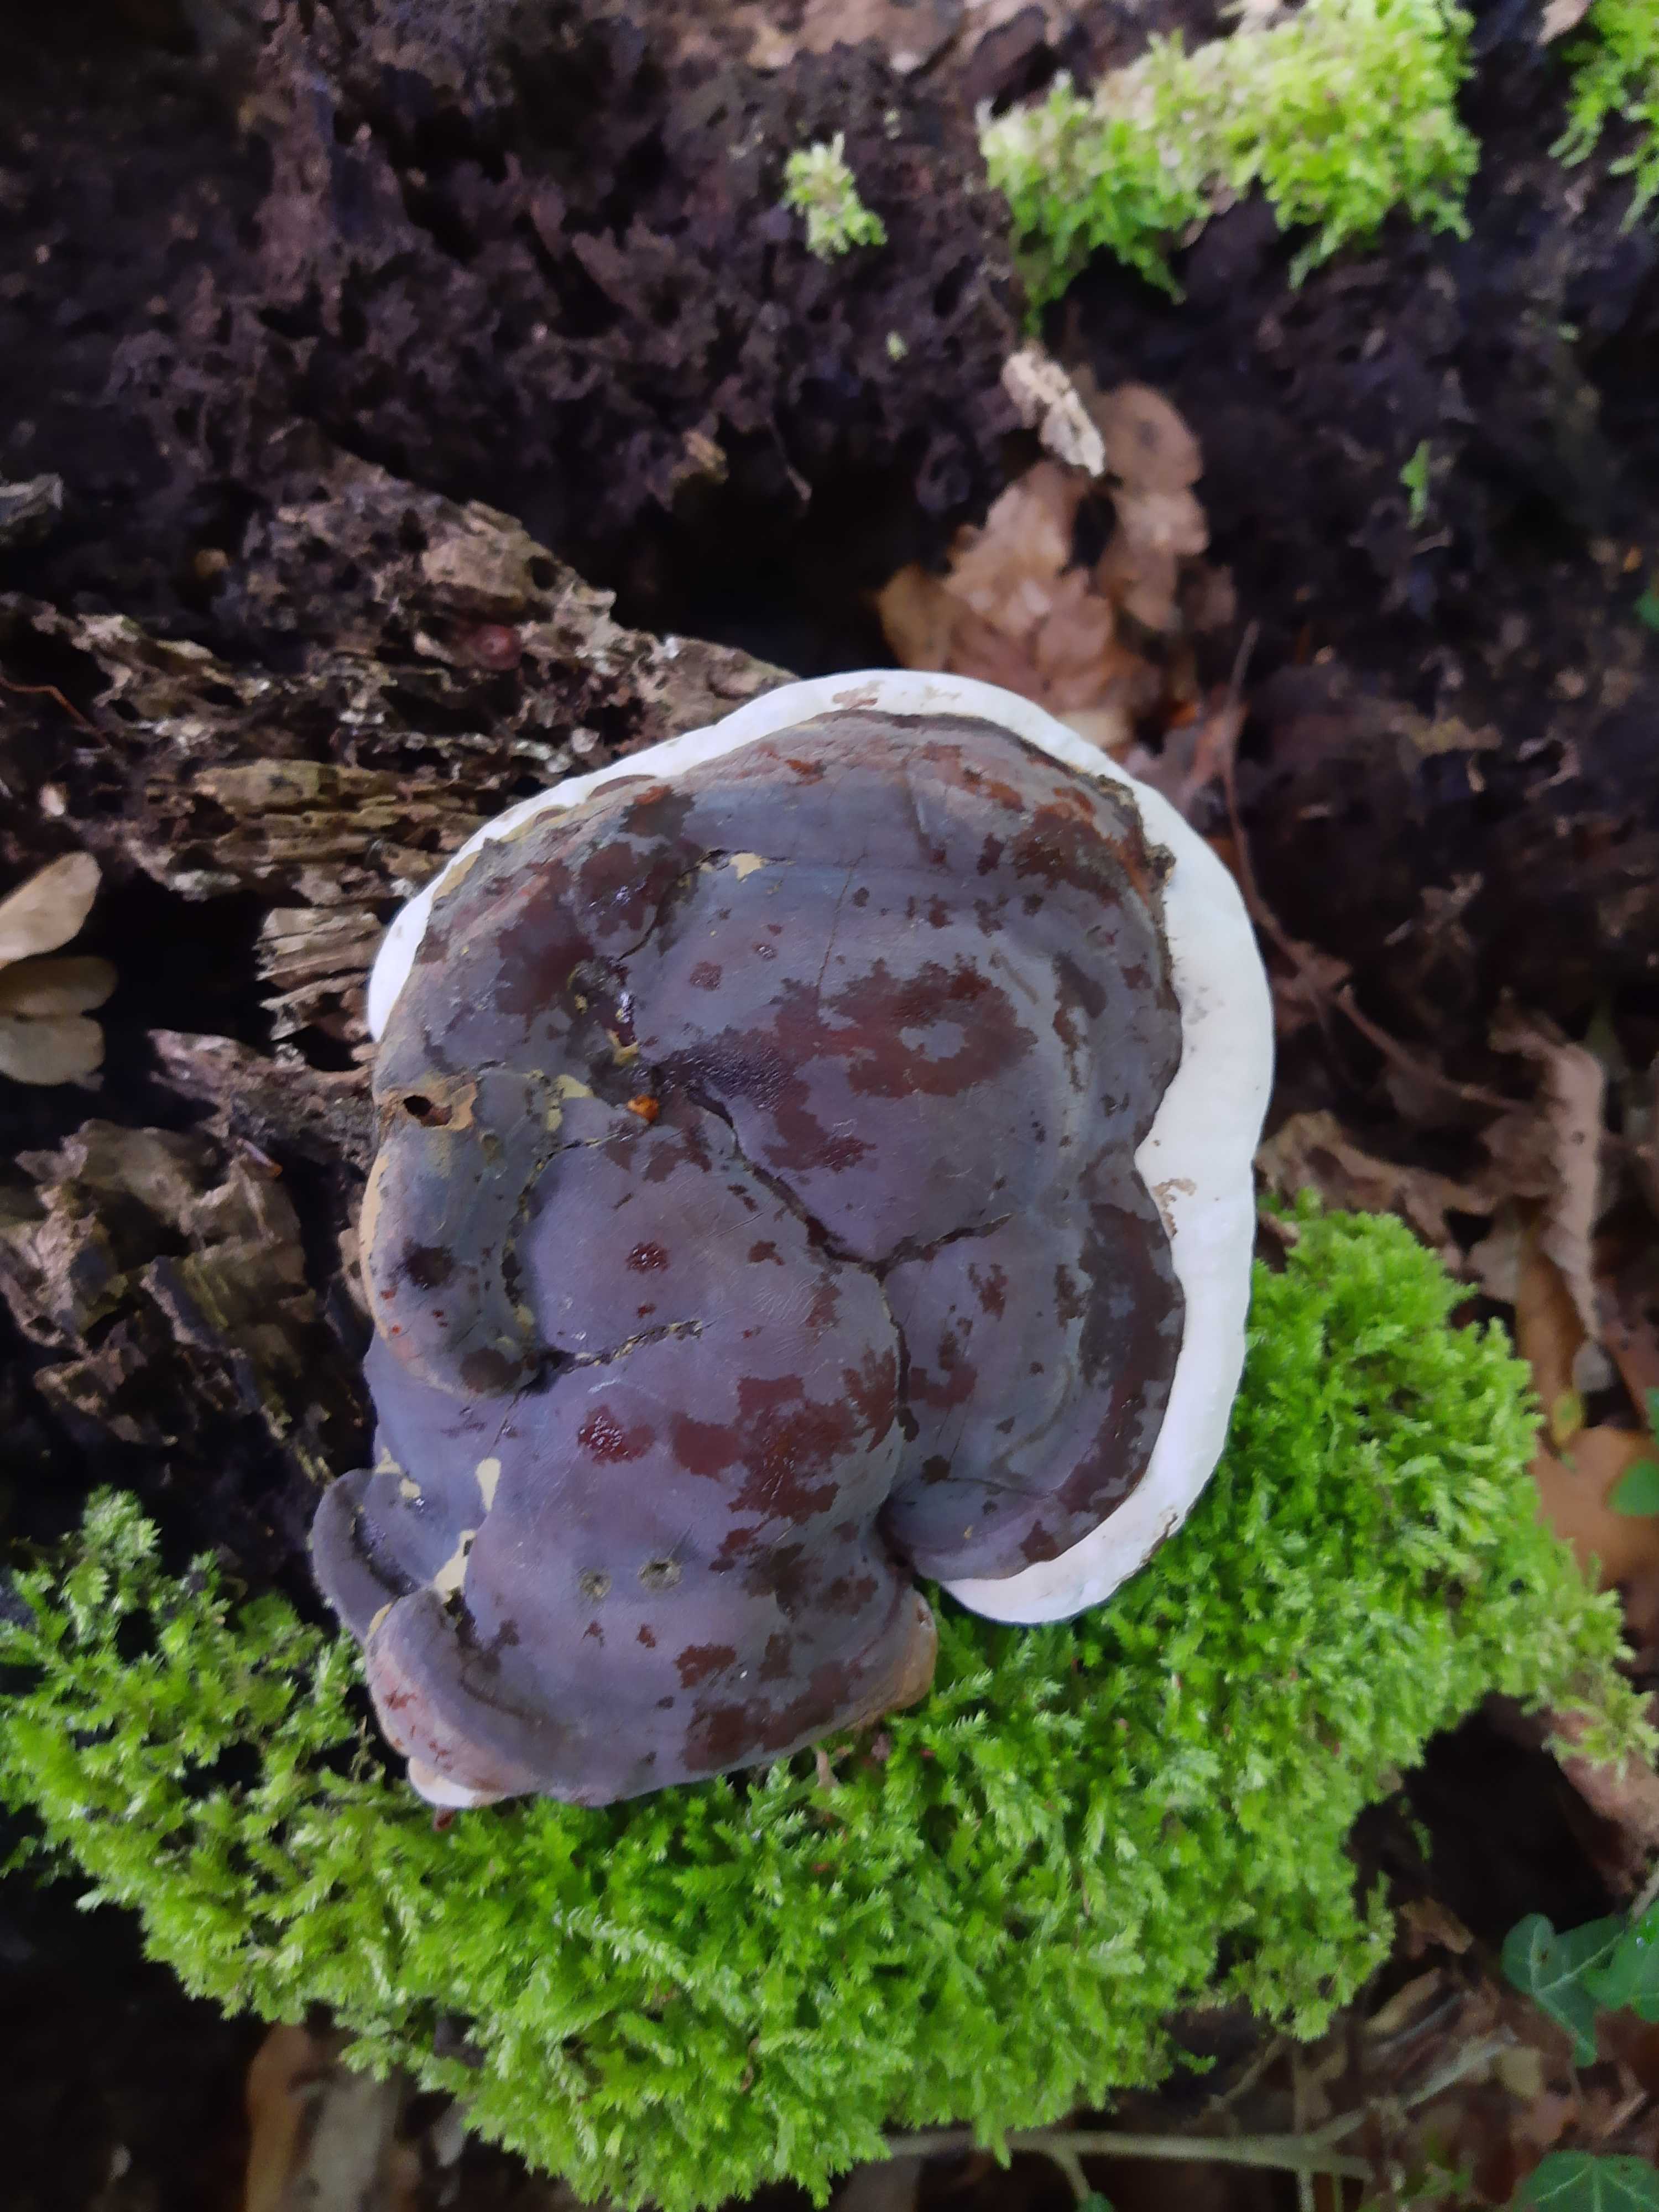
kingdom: Fungi
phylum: Basidiomycota
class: Agaricomycetes
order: Polyporales
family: Polyporaceae
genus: Ganoderma
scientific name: Ganoderma pfeifferi
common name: kobberrød lakporesvamp
